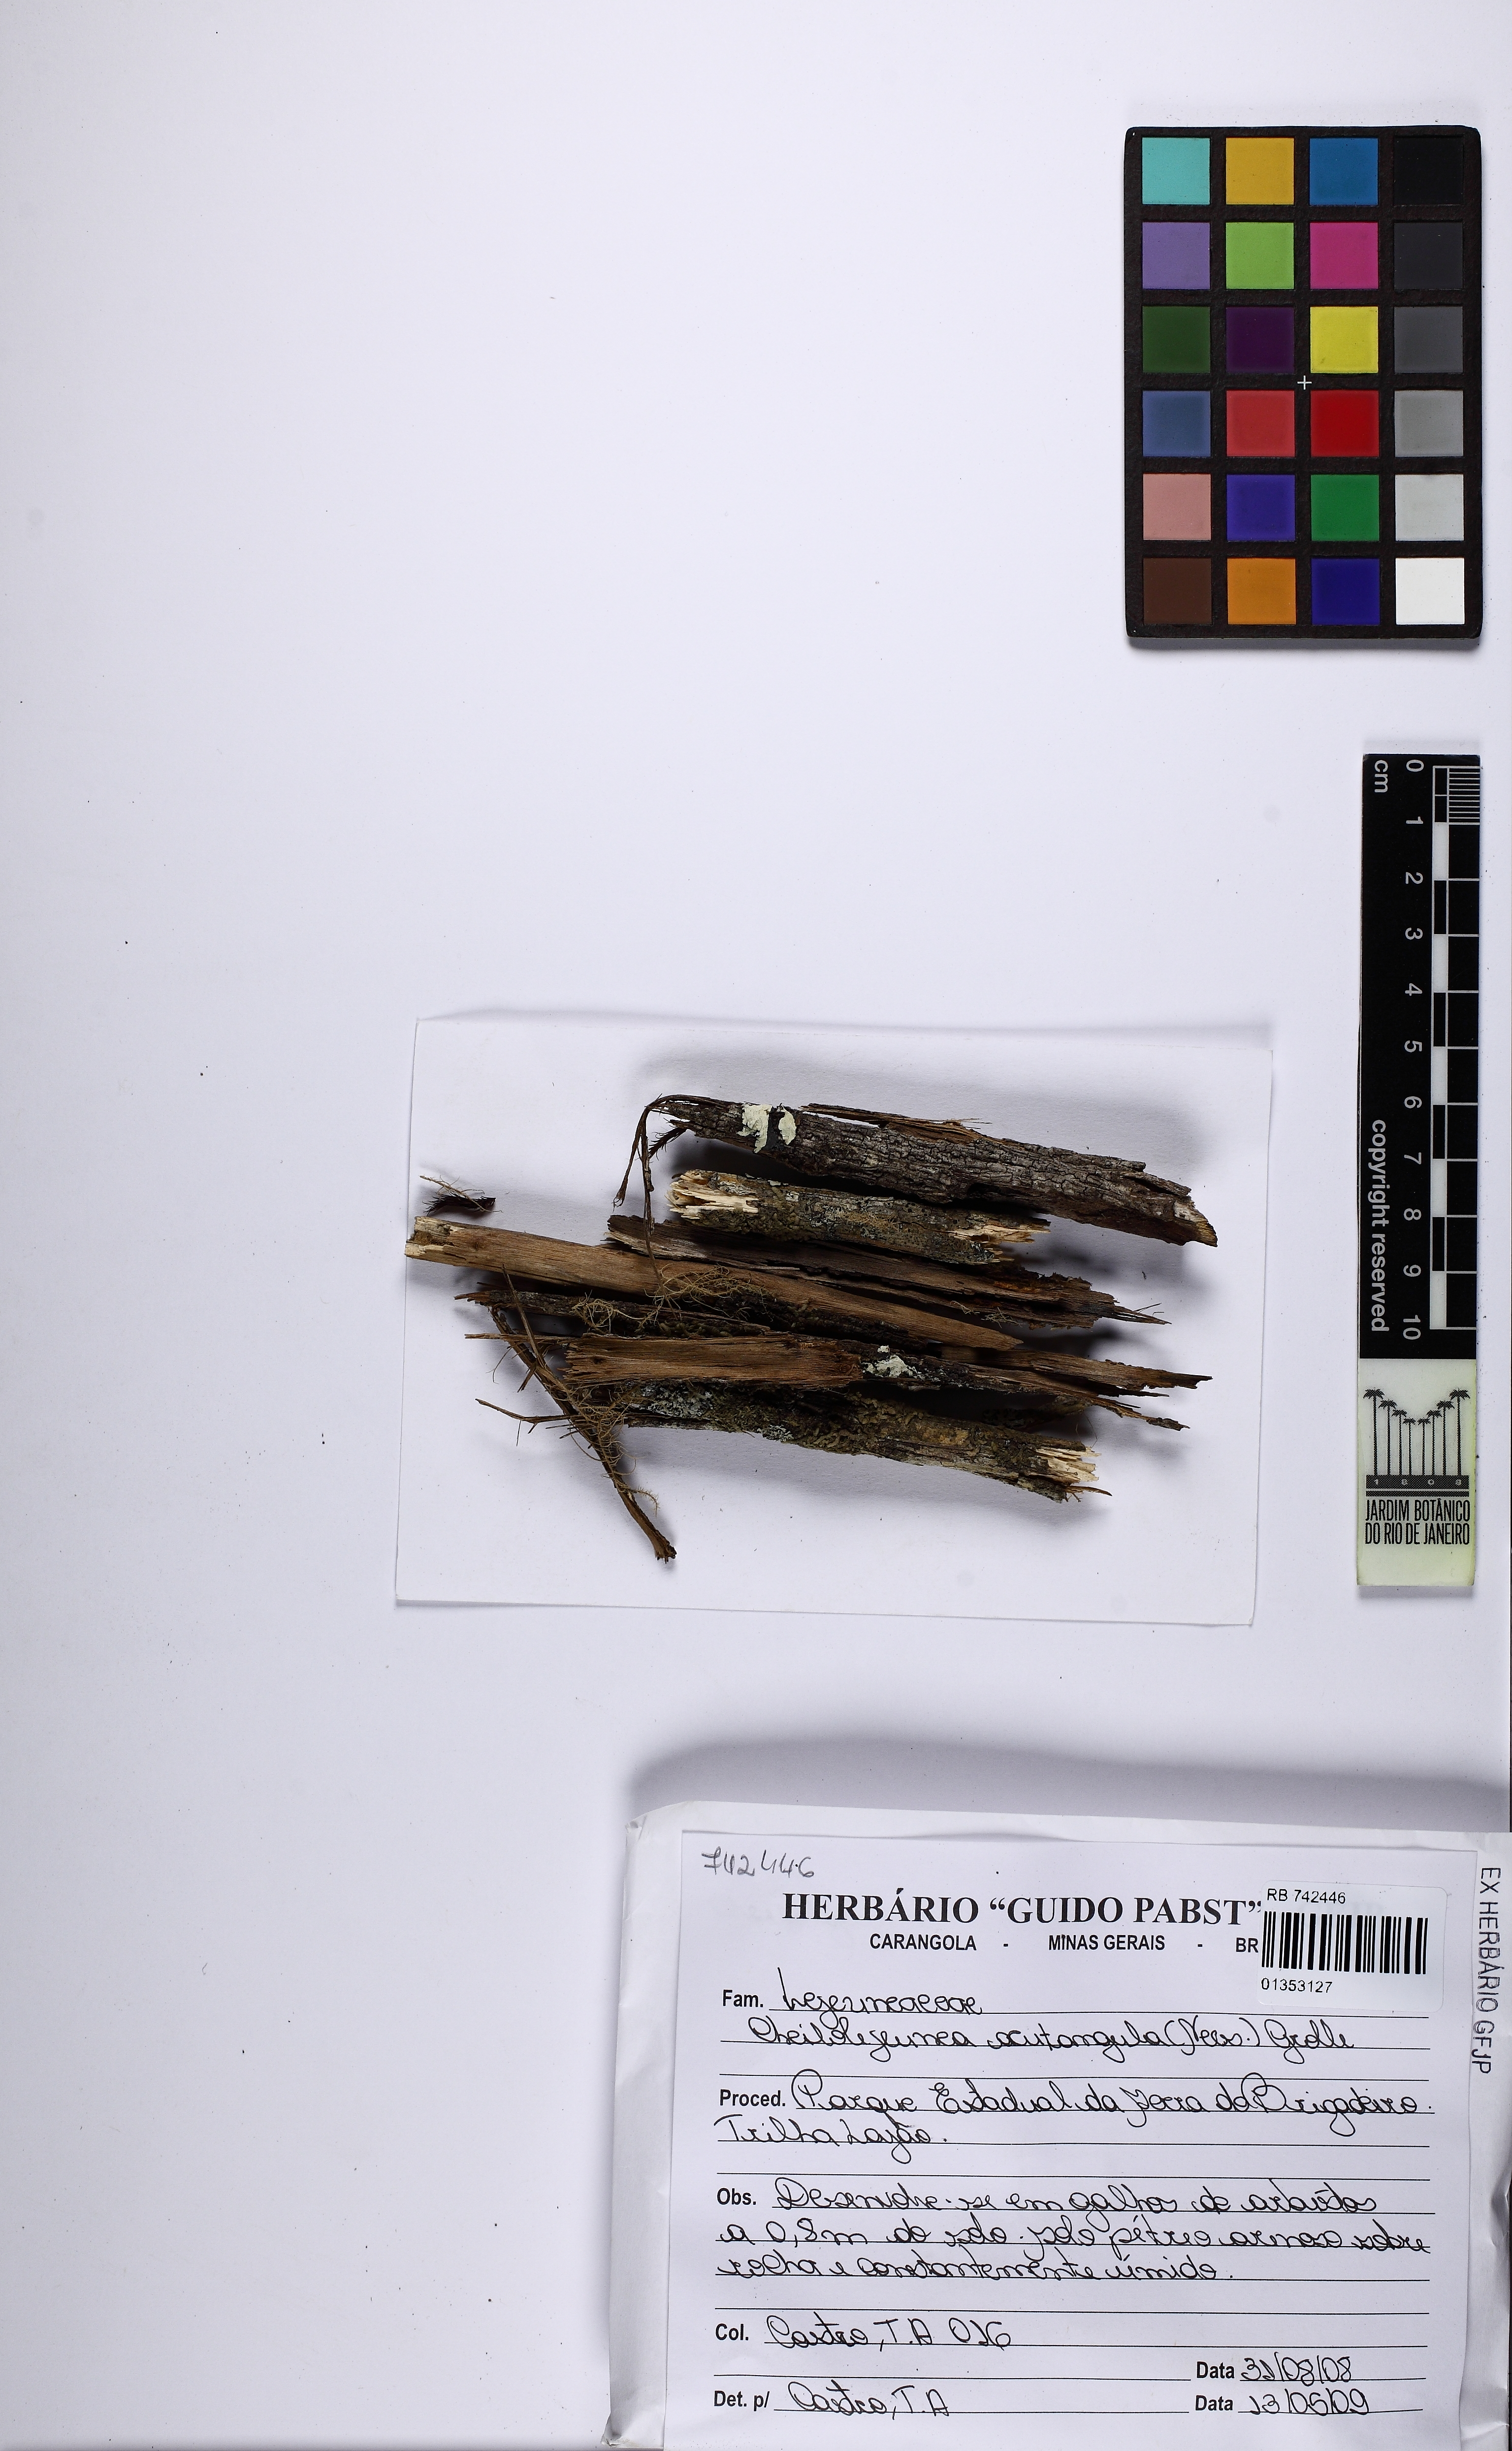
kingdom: Plantae
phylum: Marchantiophyta
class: Jungermanniopsida
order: Porellales
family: Lejeuneaceae
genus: Cheilolejeunea
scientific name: Cheilolejeunea acutangula
